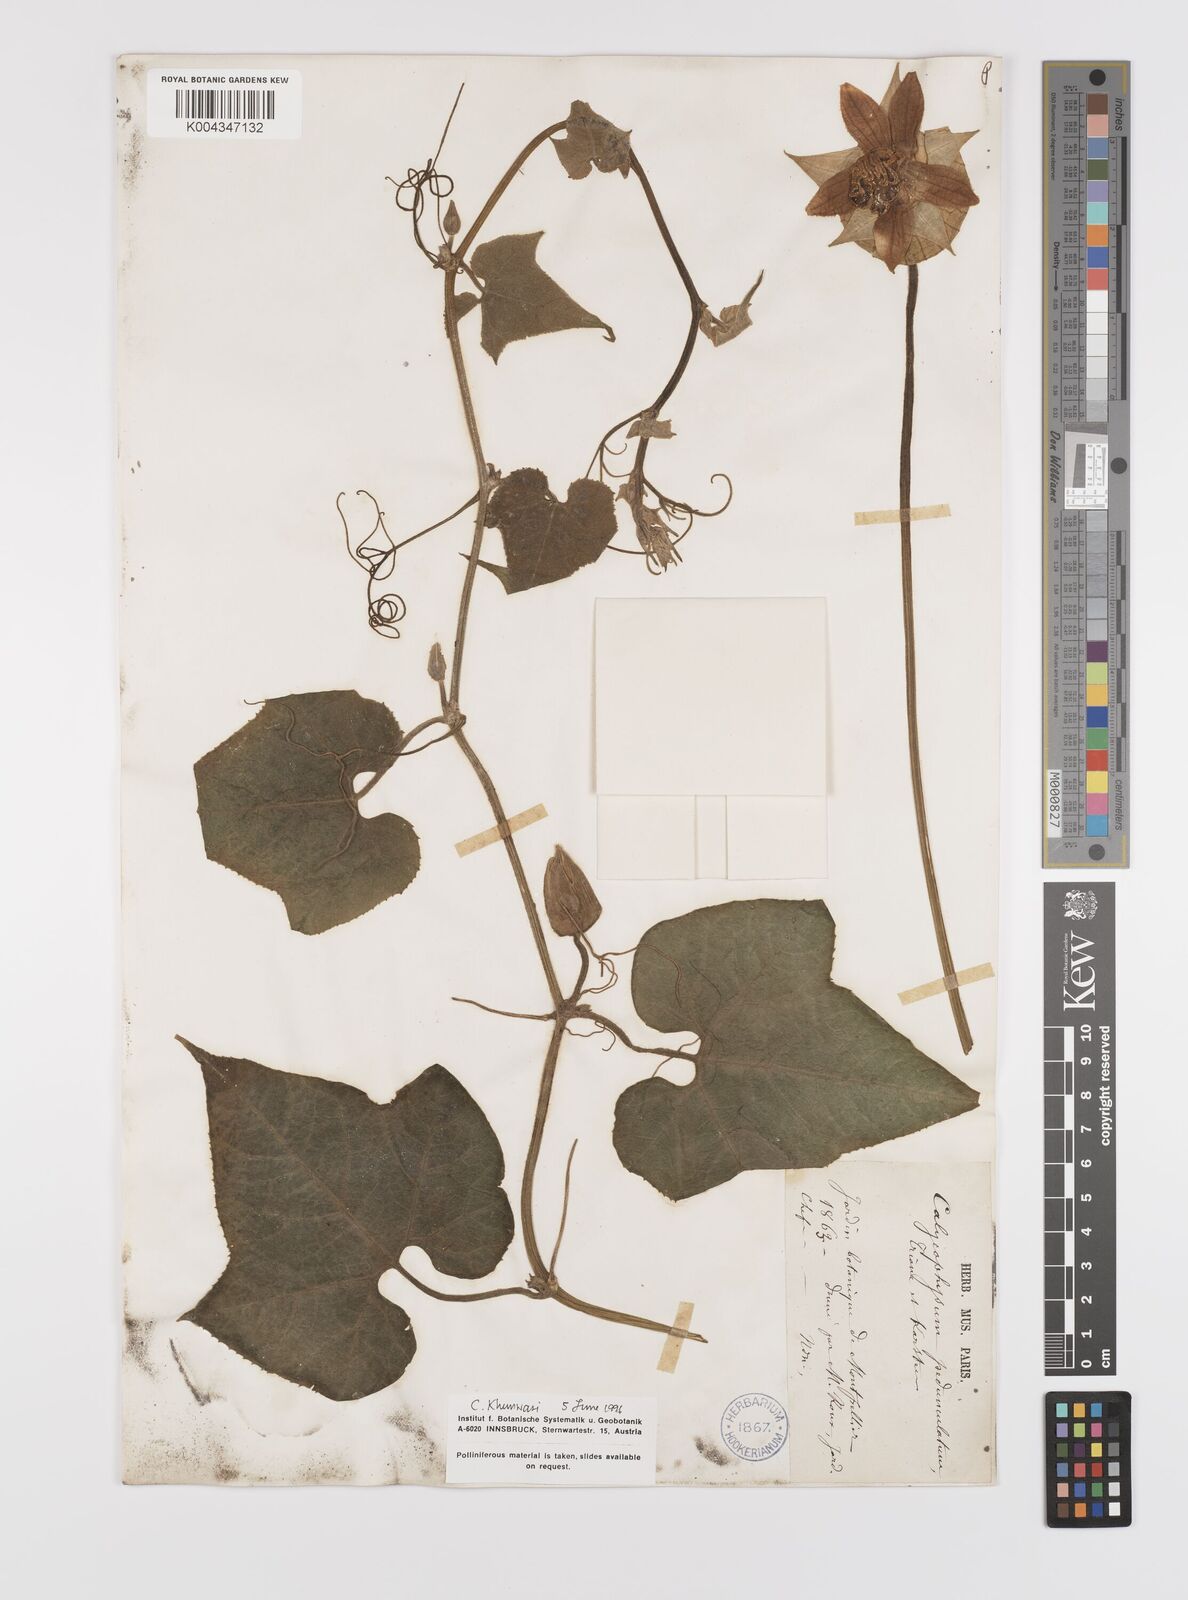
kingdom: Plantae
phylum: Tracheophyta
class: Magnoliopsida
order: Cucurbitales
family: Cucurbitaceae
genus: Calycophysum
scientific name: Calycophysum pedunculatum
